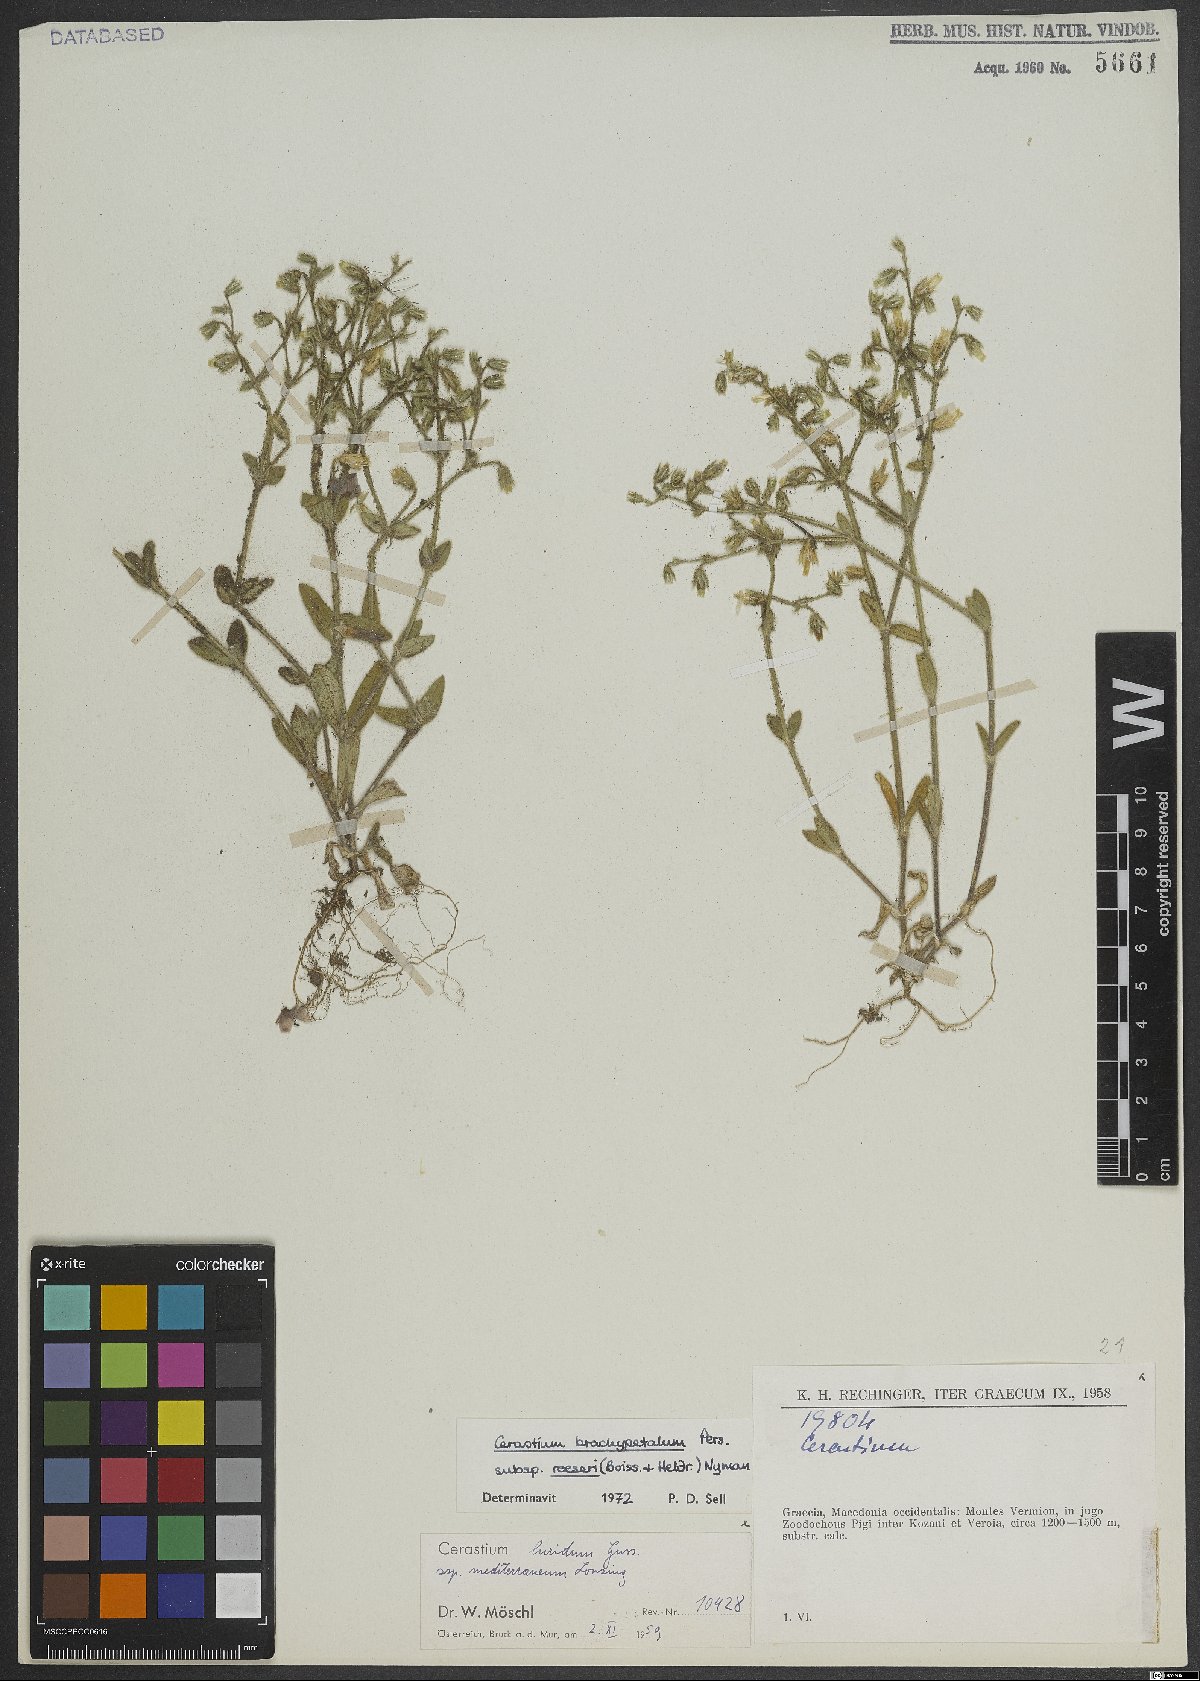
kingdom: Plantae
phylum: Tracheophyta
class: Magnoliopsida
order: Caryophyllales
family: Caryophyllaceae
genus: Cerastium
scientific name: Cerastium brachypetalum
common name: Grey mouse-ear
